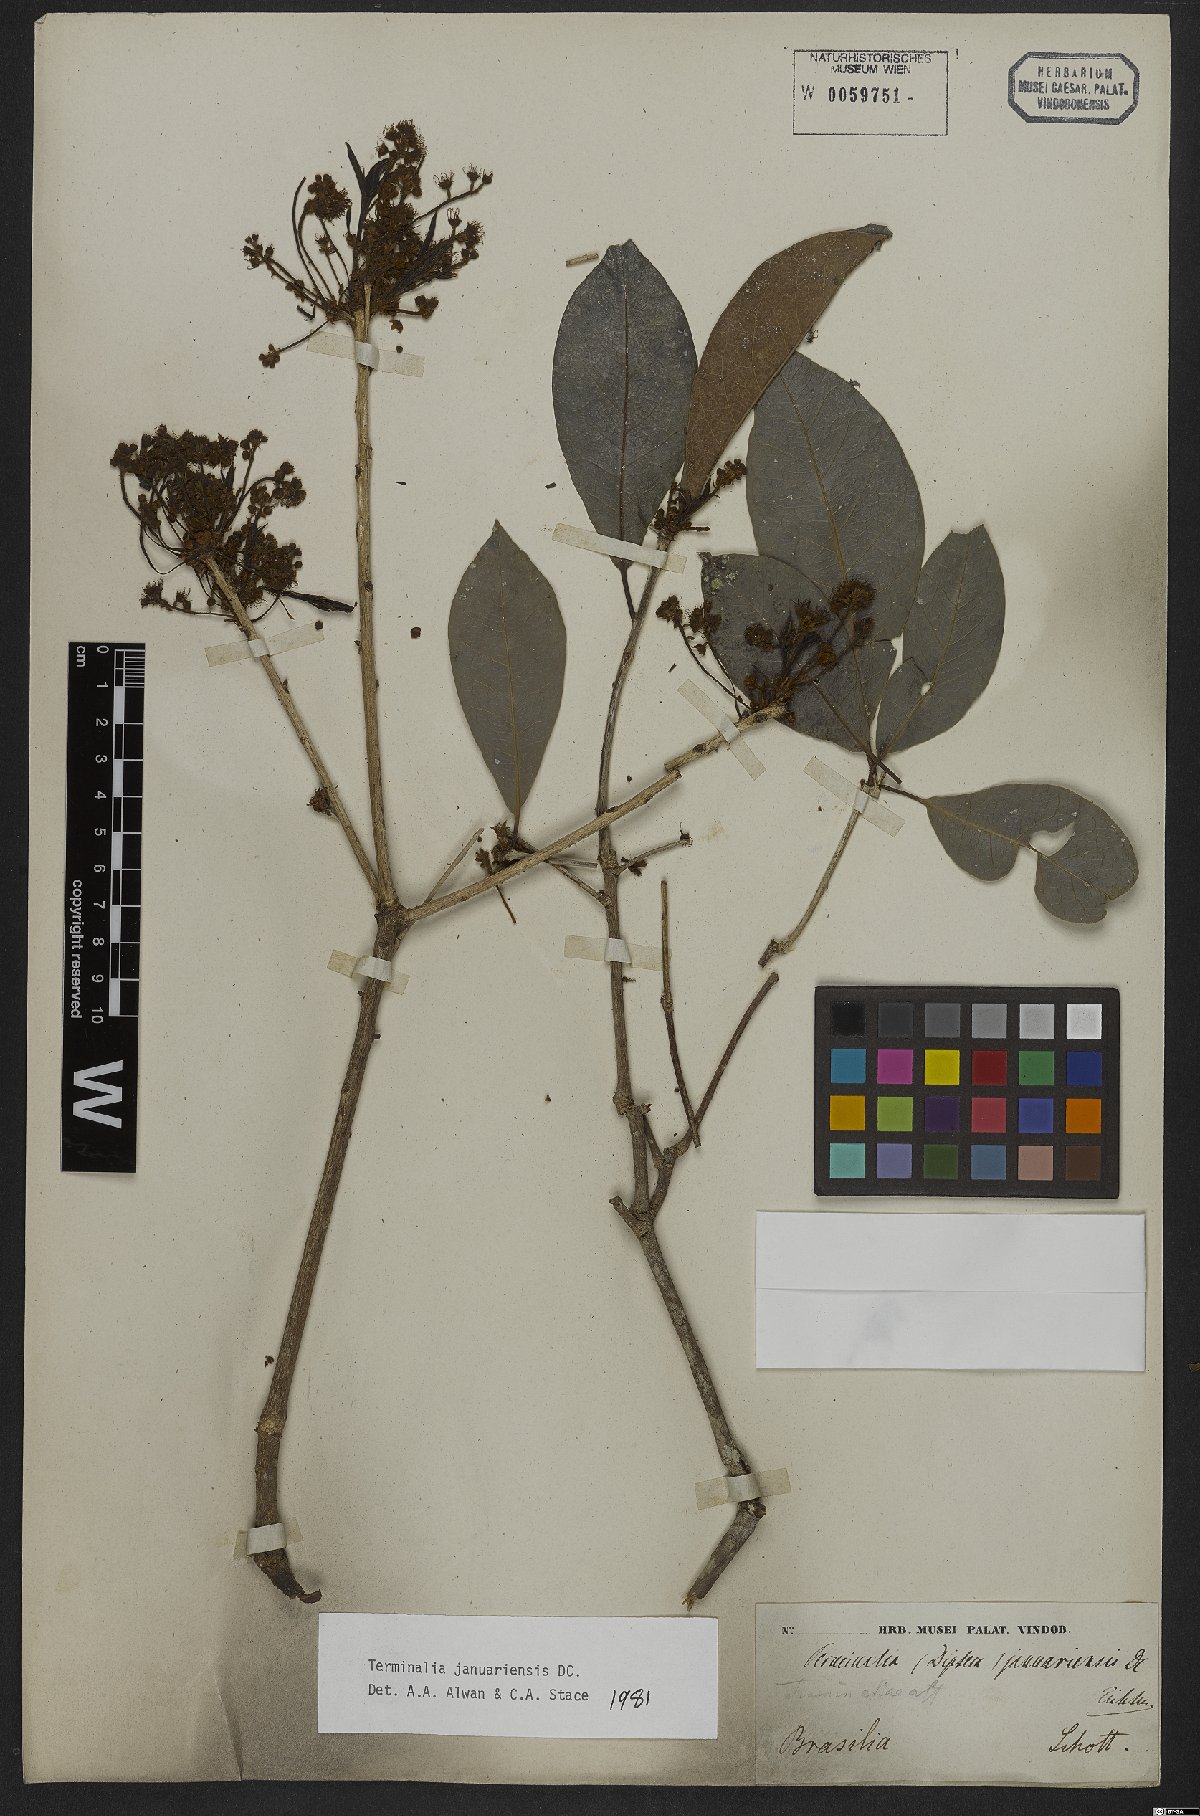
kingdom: Plantae
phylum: Tracheophyta
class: Magnoliopsida
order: Myrtales
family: Combretaceae
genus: Terminalia
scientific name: Terminalia januariensis
